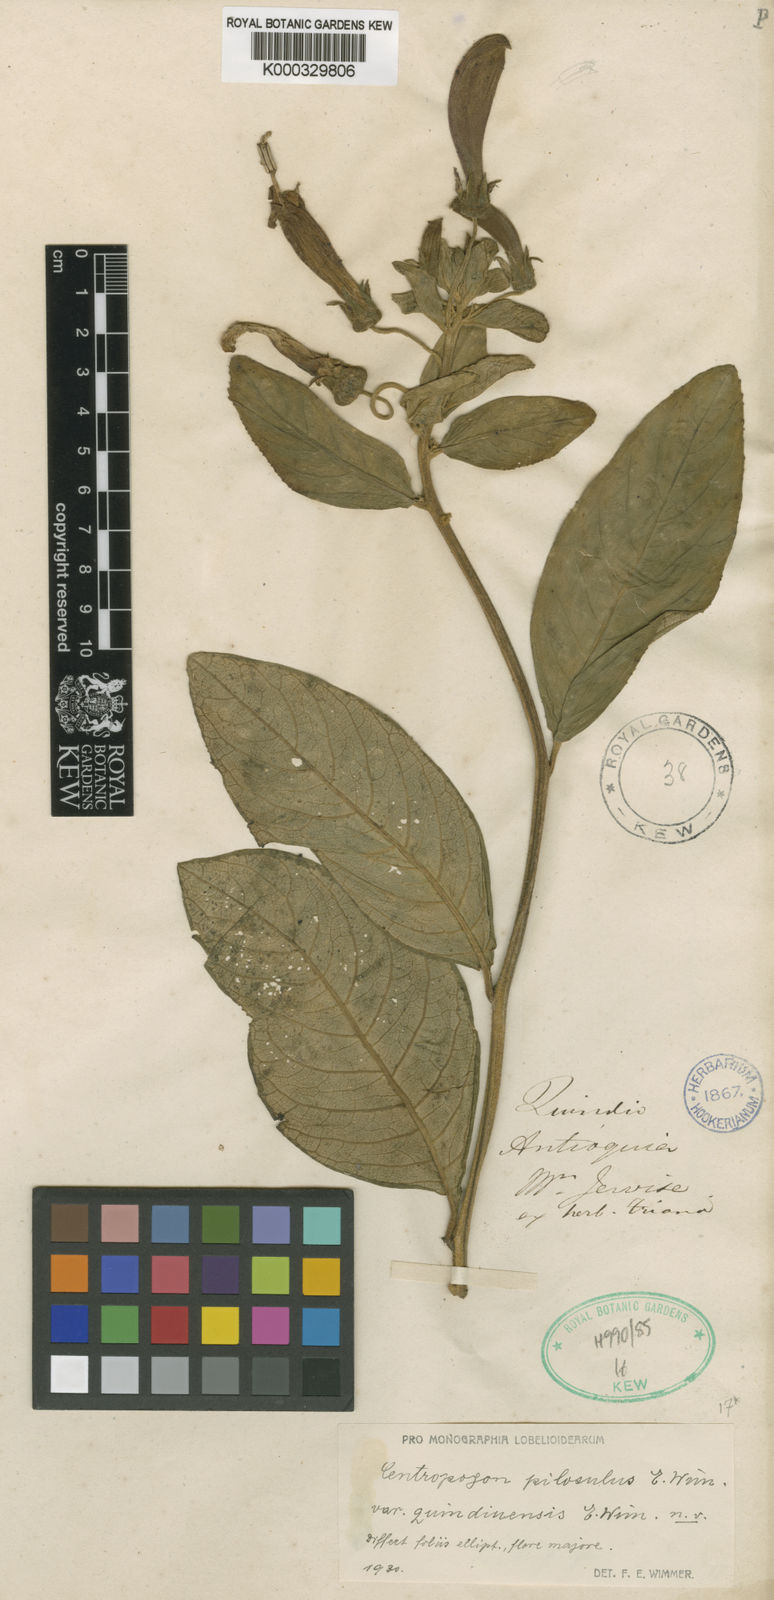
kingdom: Plantae
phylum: Tracheophyta
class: Magnoliopsida
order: Asterales
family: Campanulaceae
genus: Centropogon
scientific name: Centropogon vernicosus
